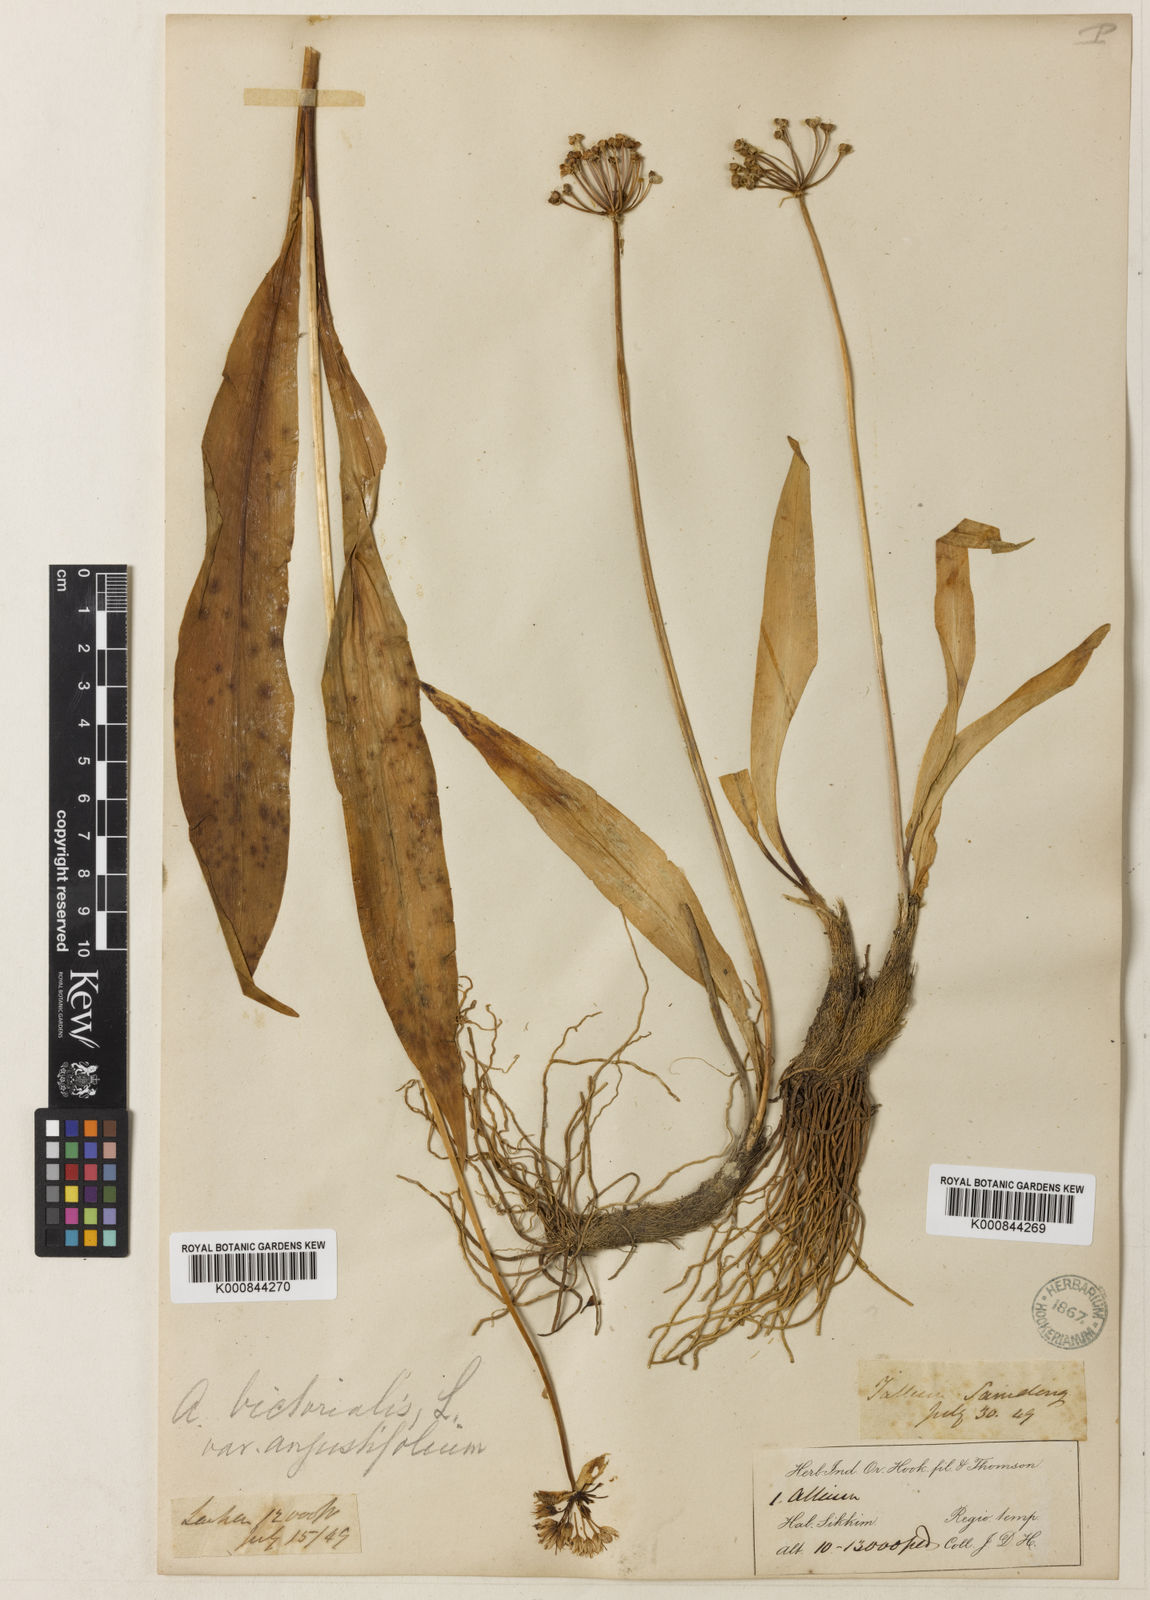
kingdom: Plantae
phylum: Tracheophyta
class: Liliopsida
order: Asparagales
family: Amaryllidaceae
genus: Allium
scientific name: Allium victorialis
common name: Alpine leek
